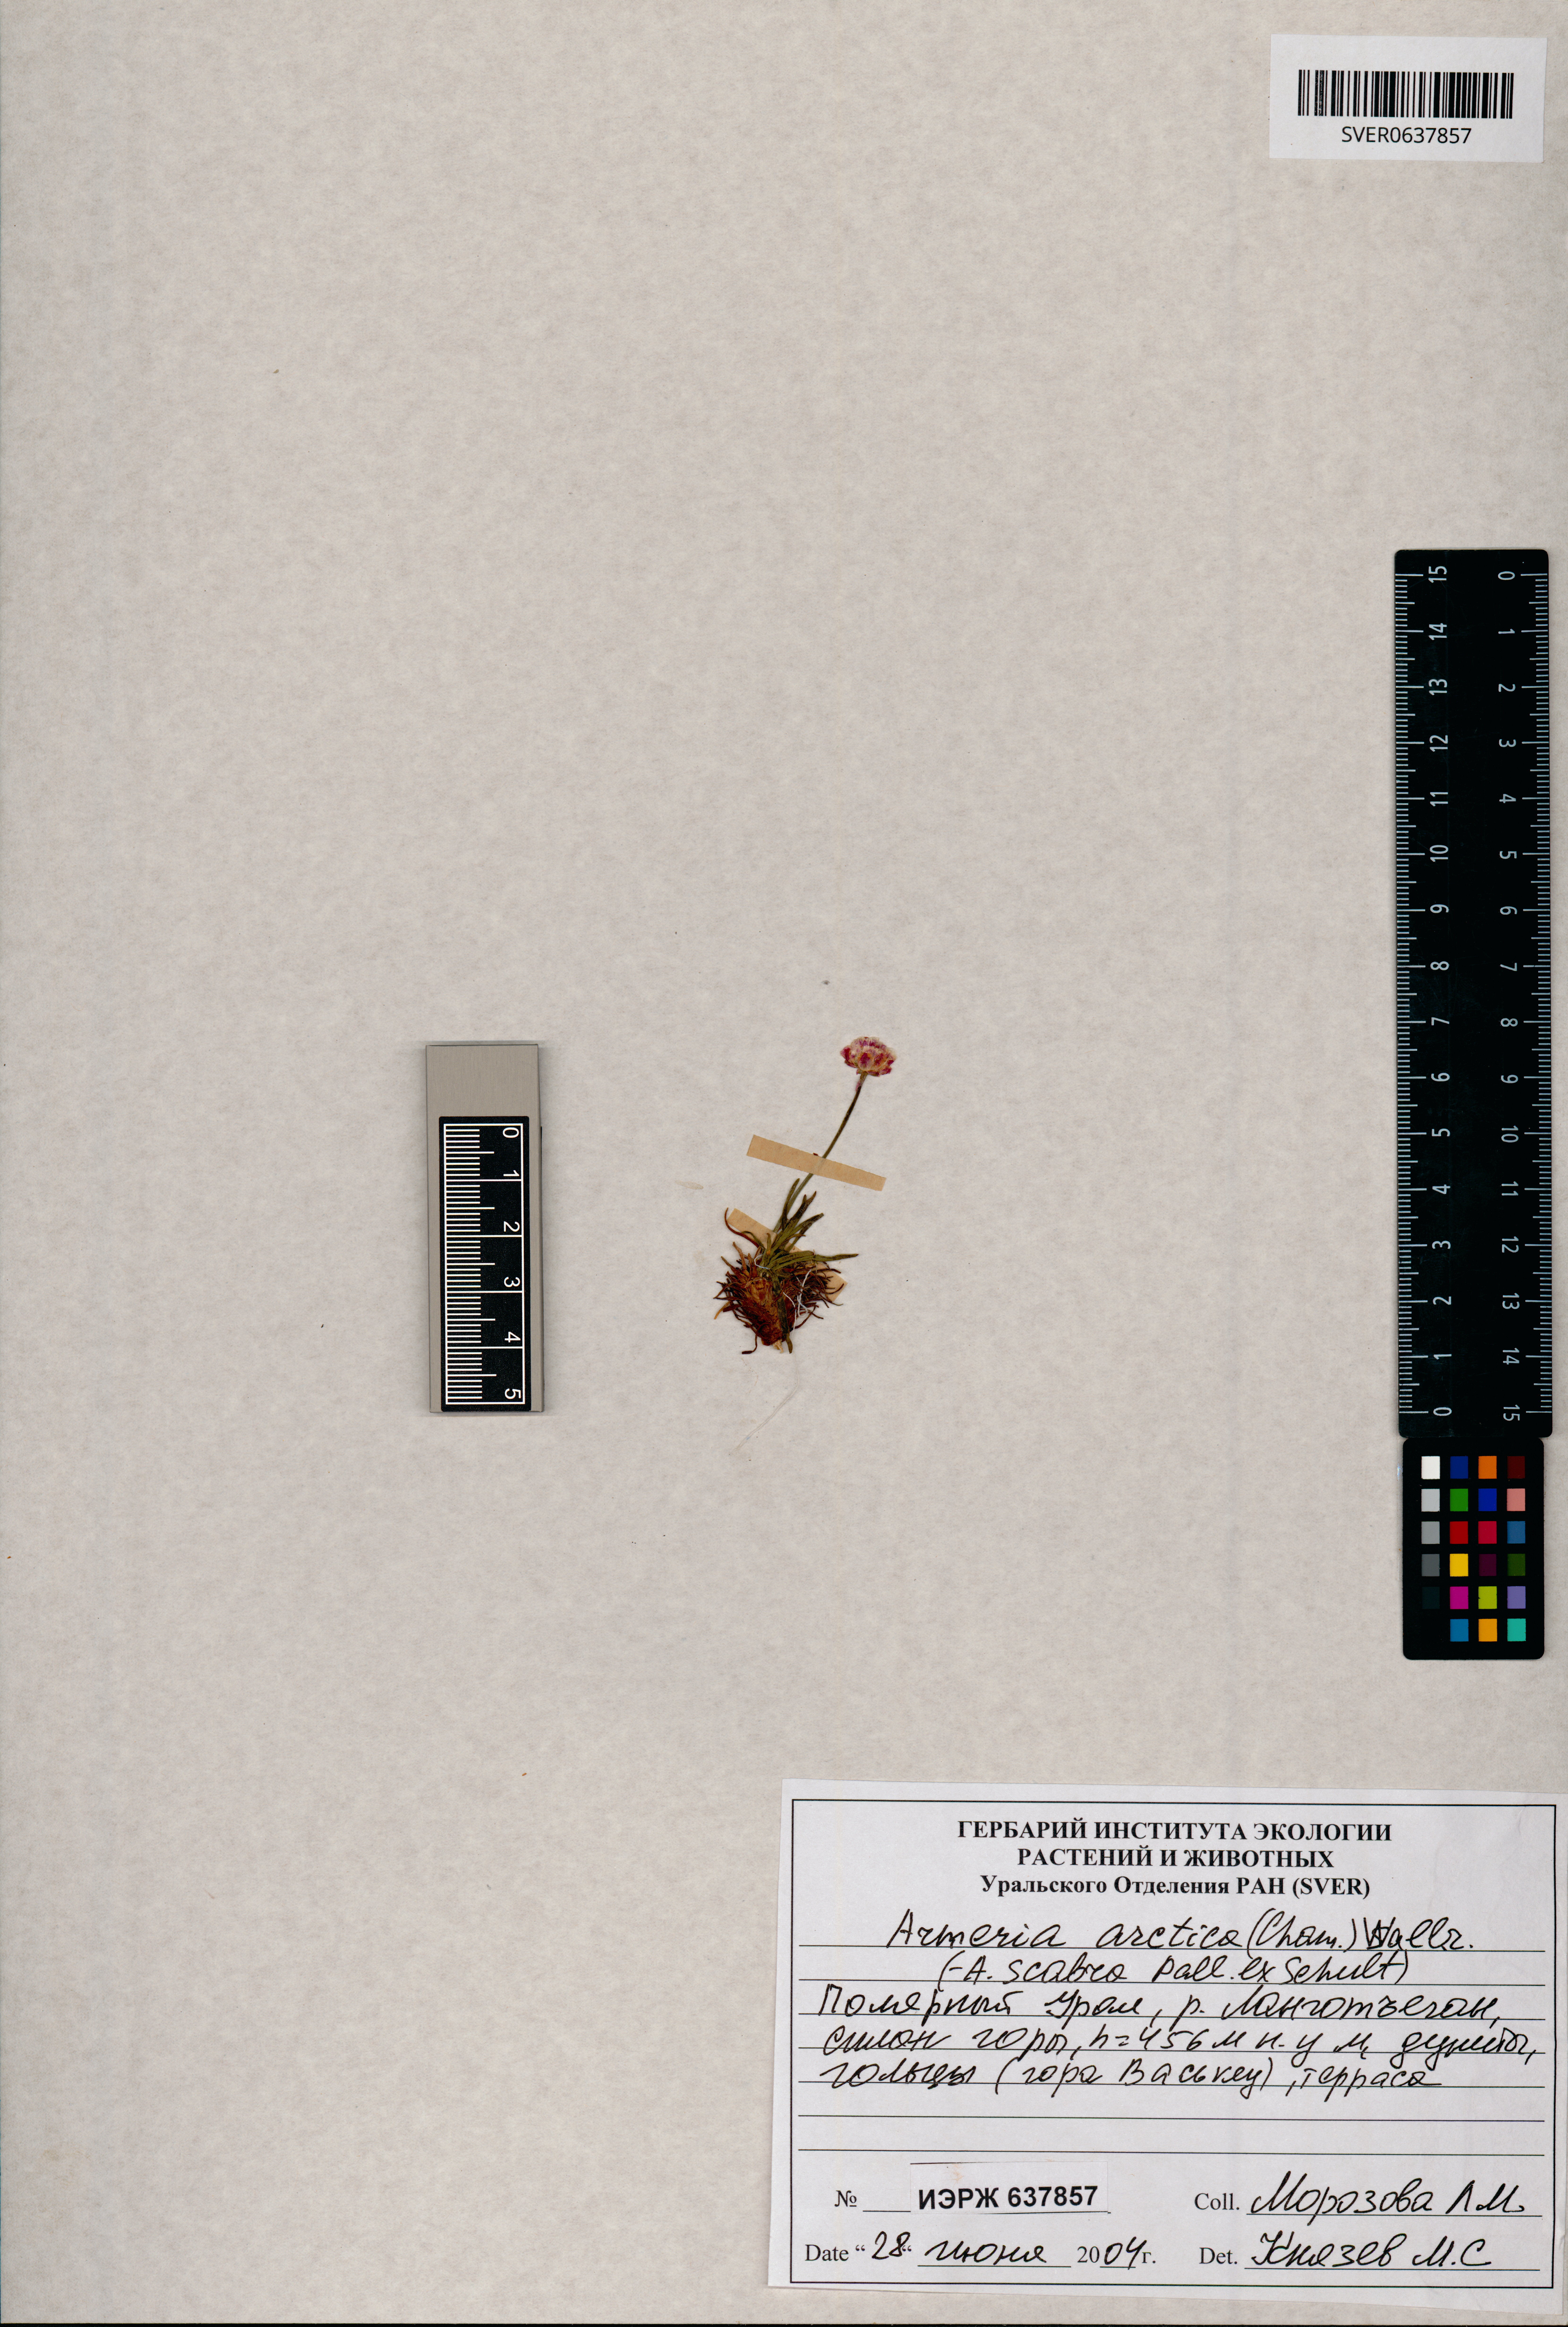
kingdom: Plantae
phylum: Tracheophyta
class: Magnoliopsida
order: Caryophyllales
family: Plumbaginaceae
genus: Armeria
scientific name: Armeria maritima
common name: Thrift
